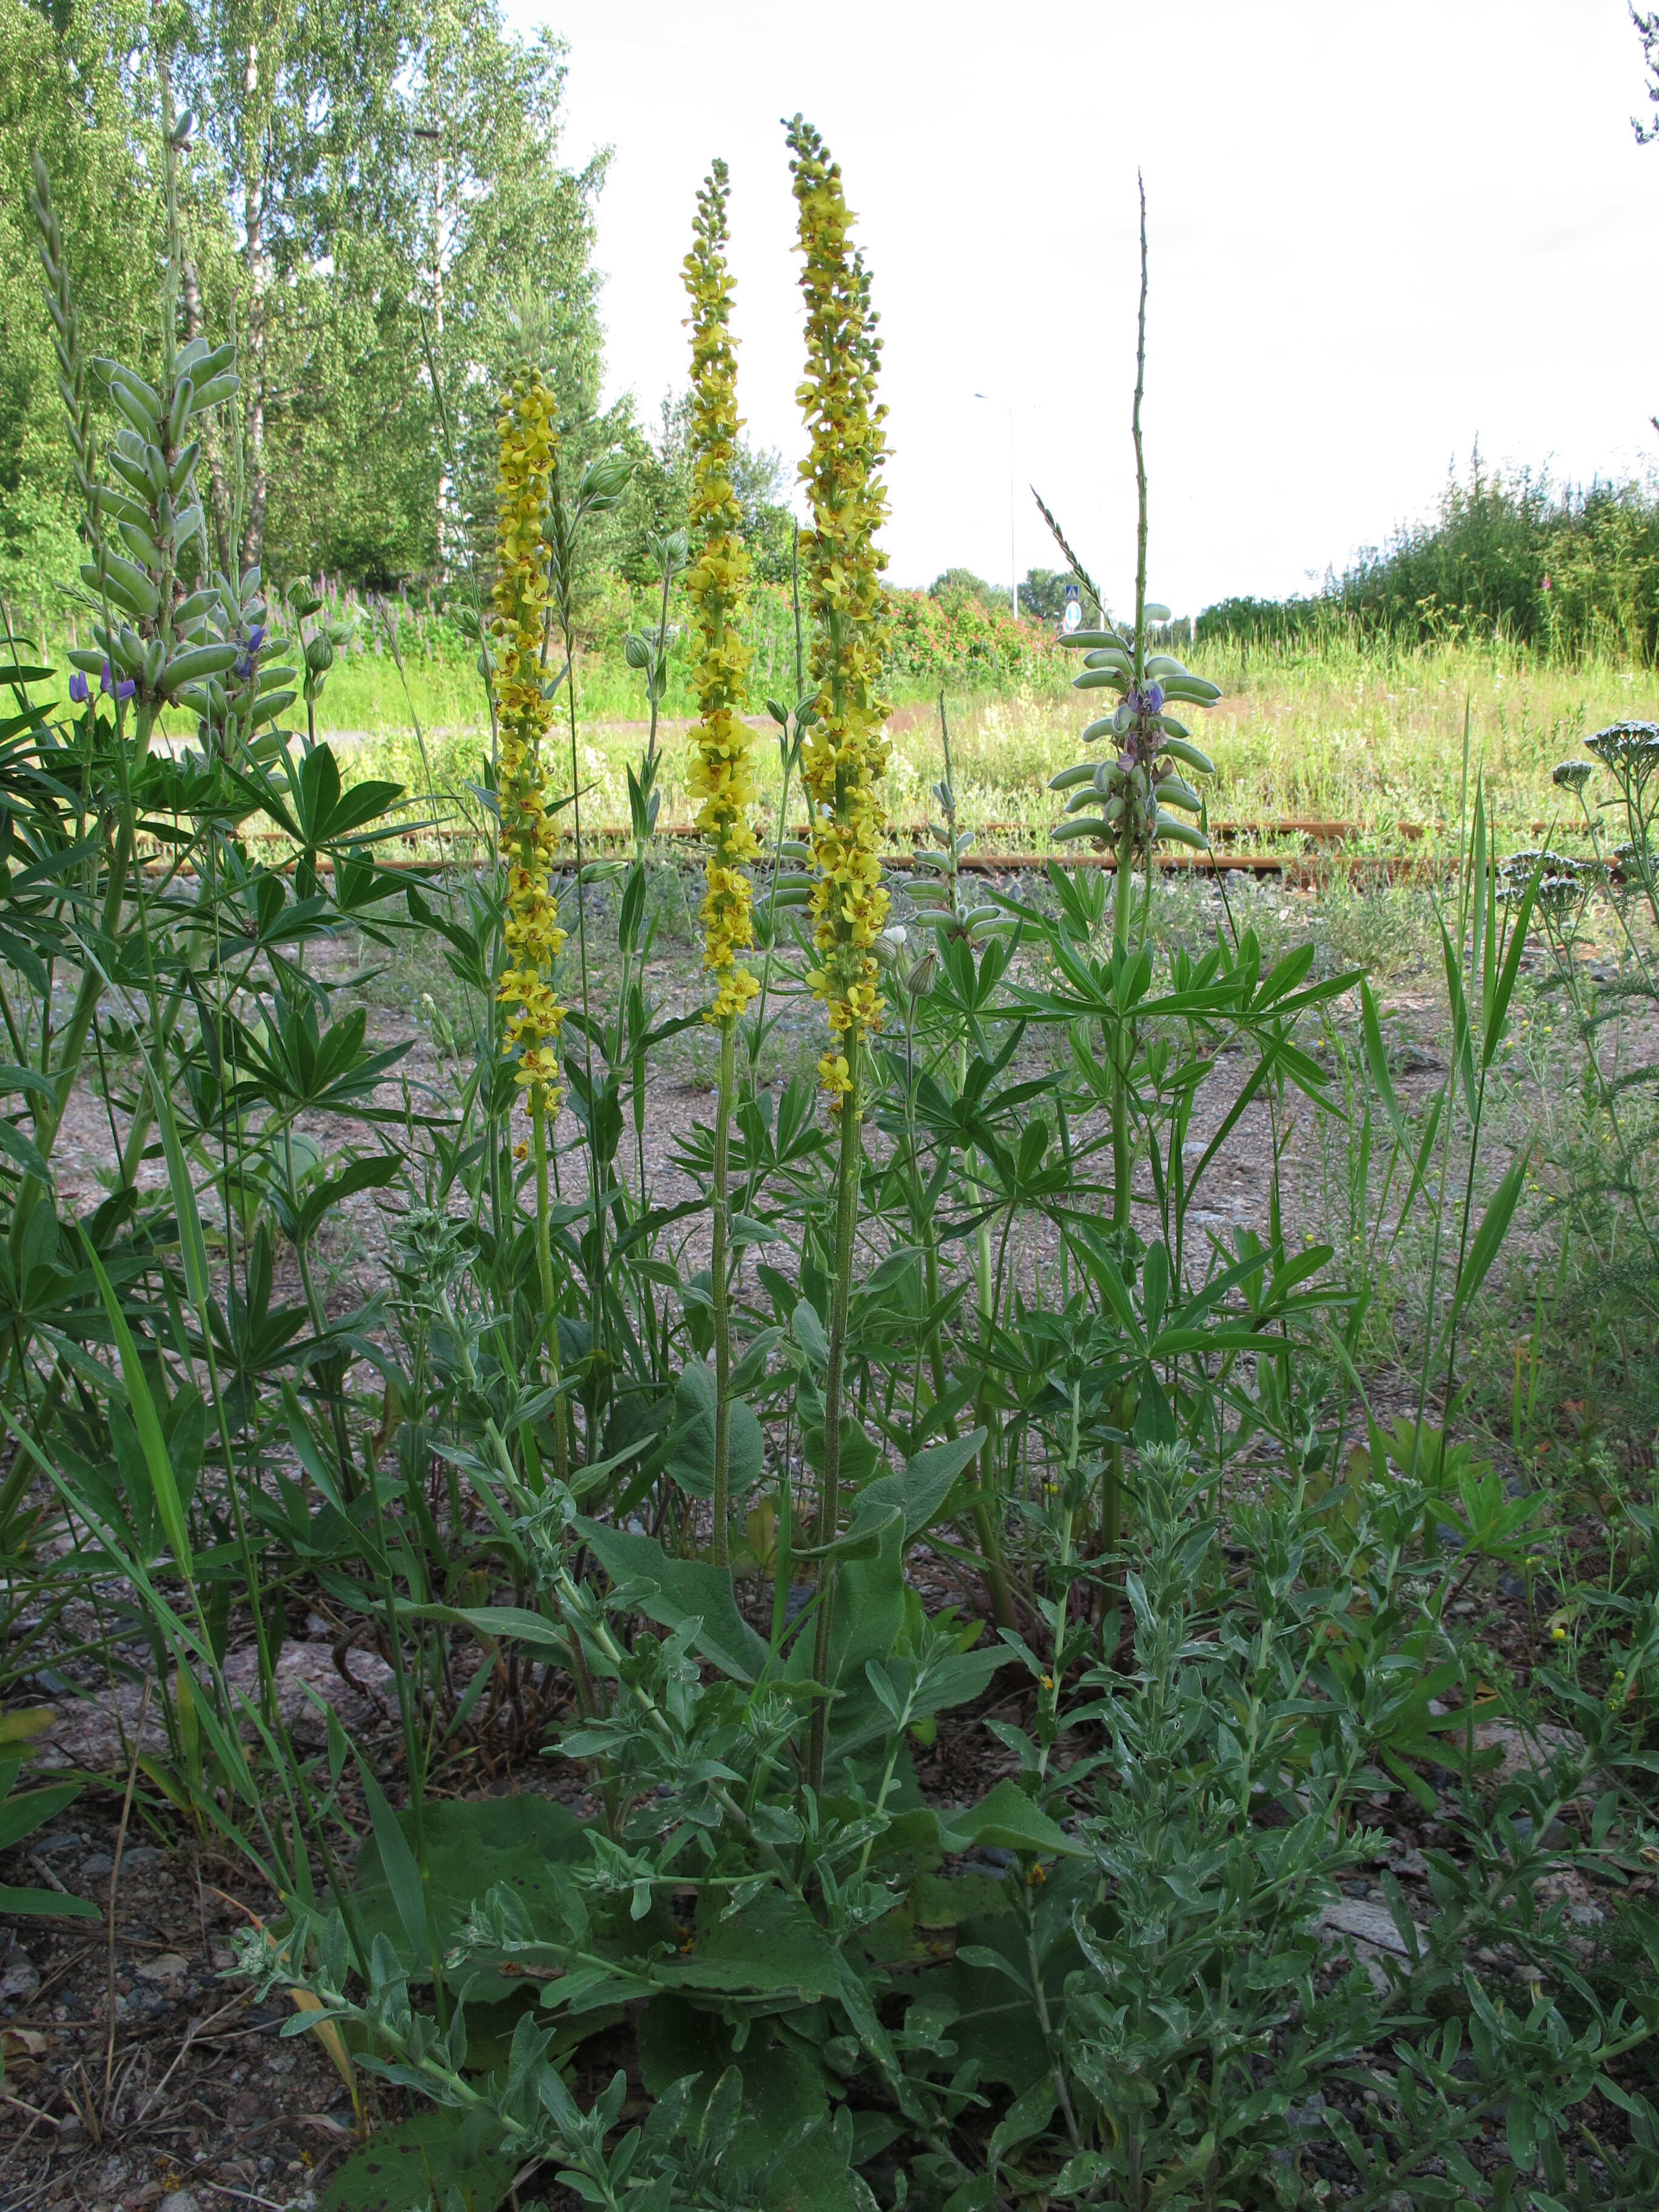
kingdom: Plantae
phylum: Tracheophyta
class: Magnoliopsida
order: Lamiales
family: Scrophulariaceae
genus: Verbascum
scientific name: Verbascum nigrum
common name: Dark mullein
